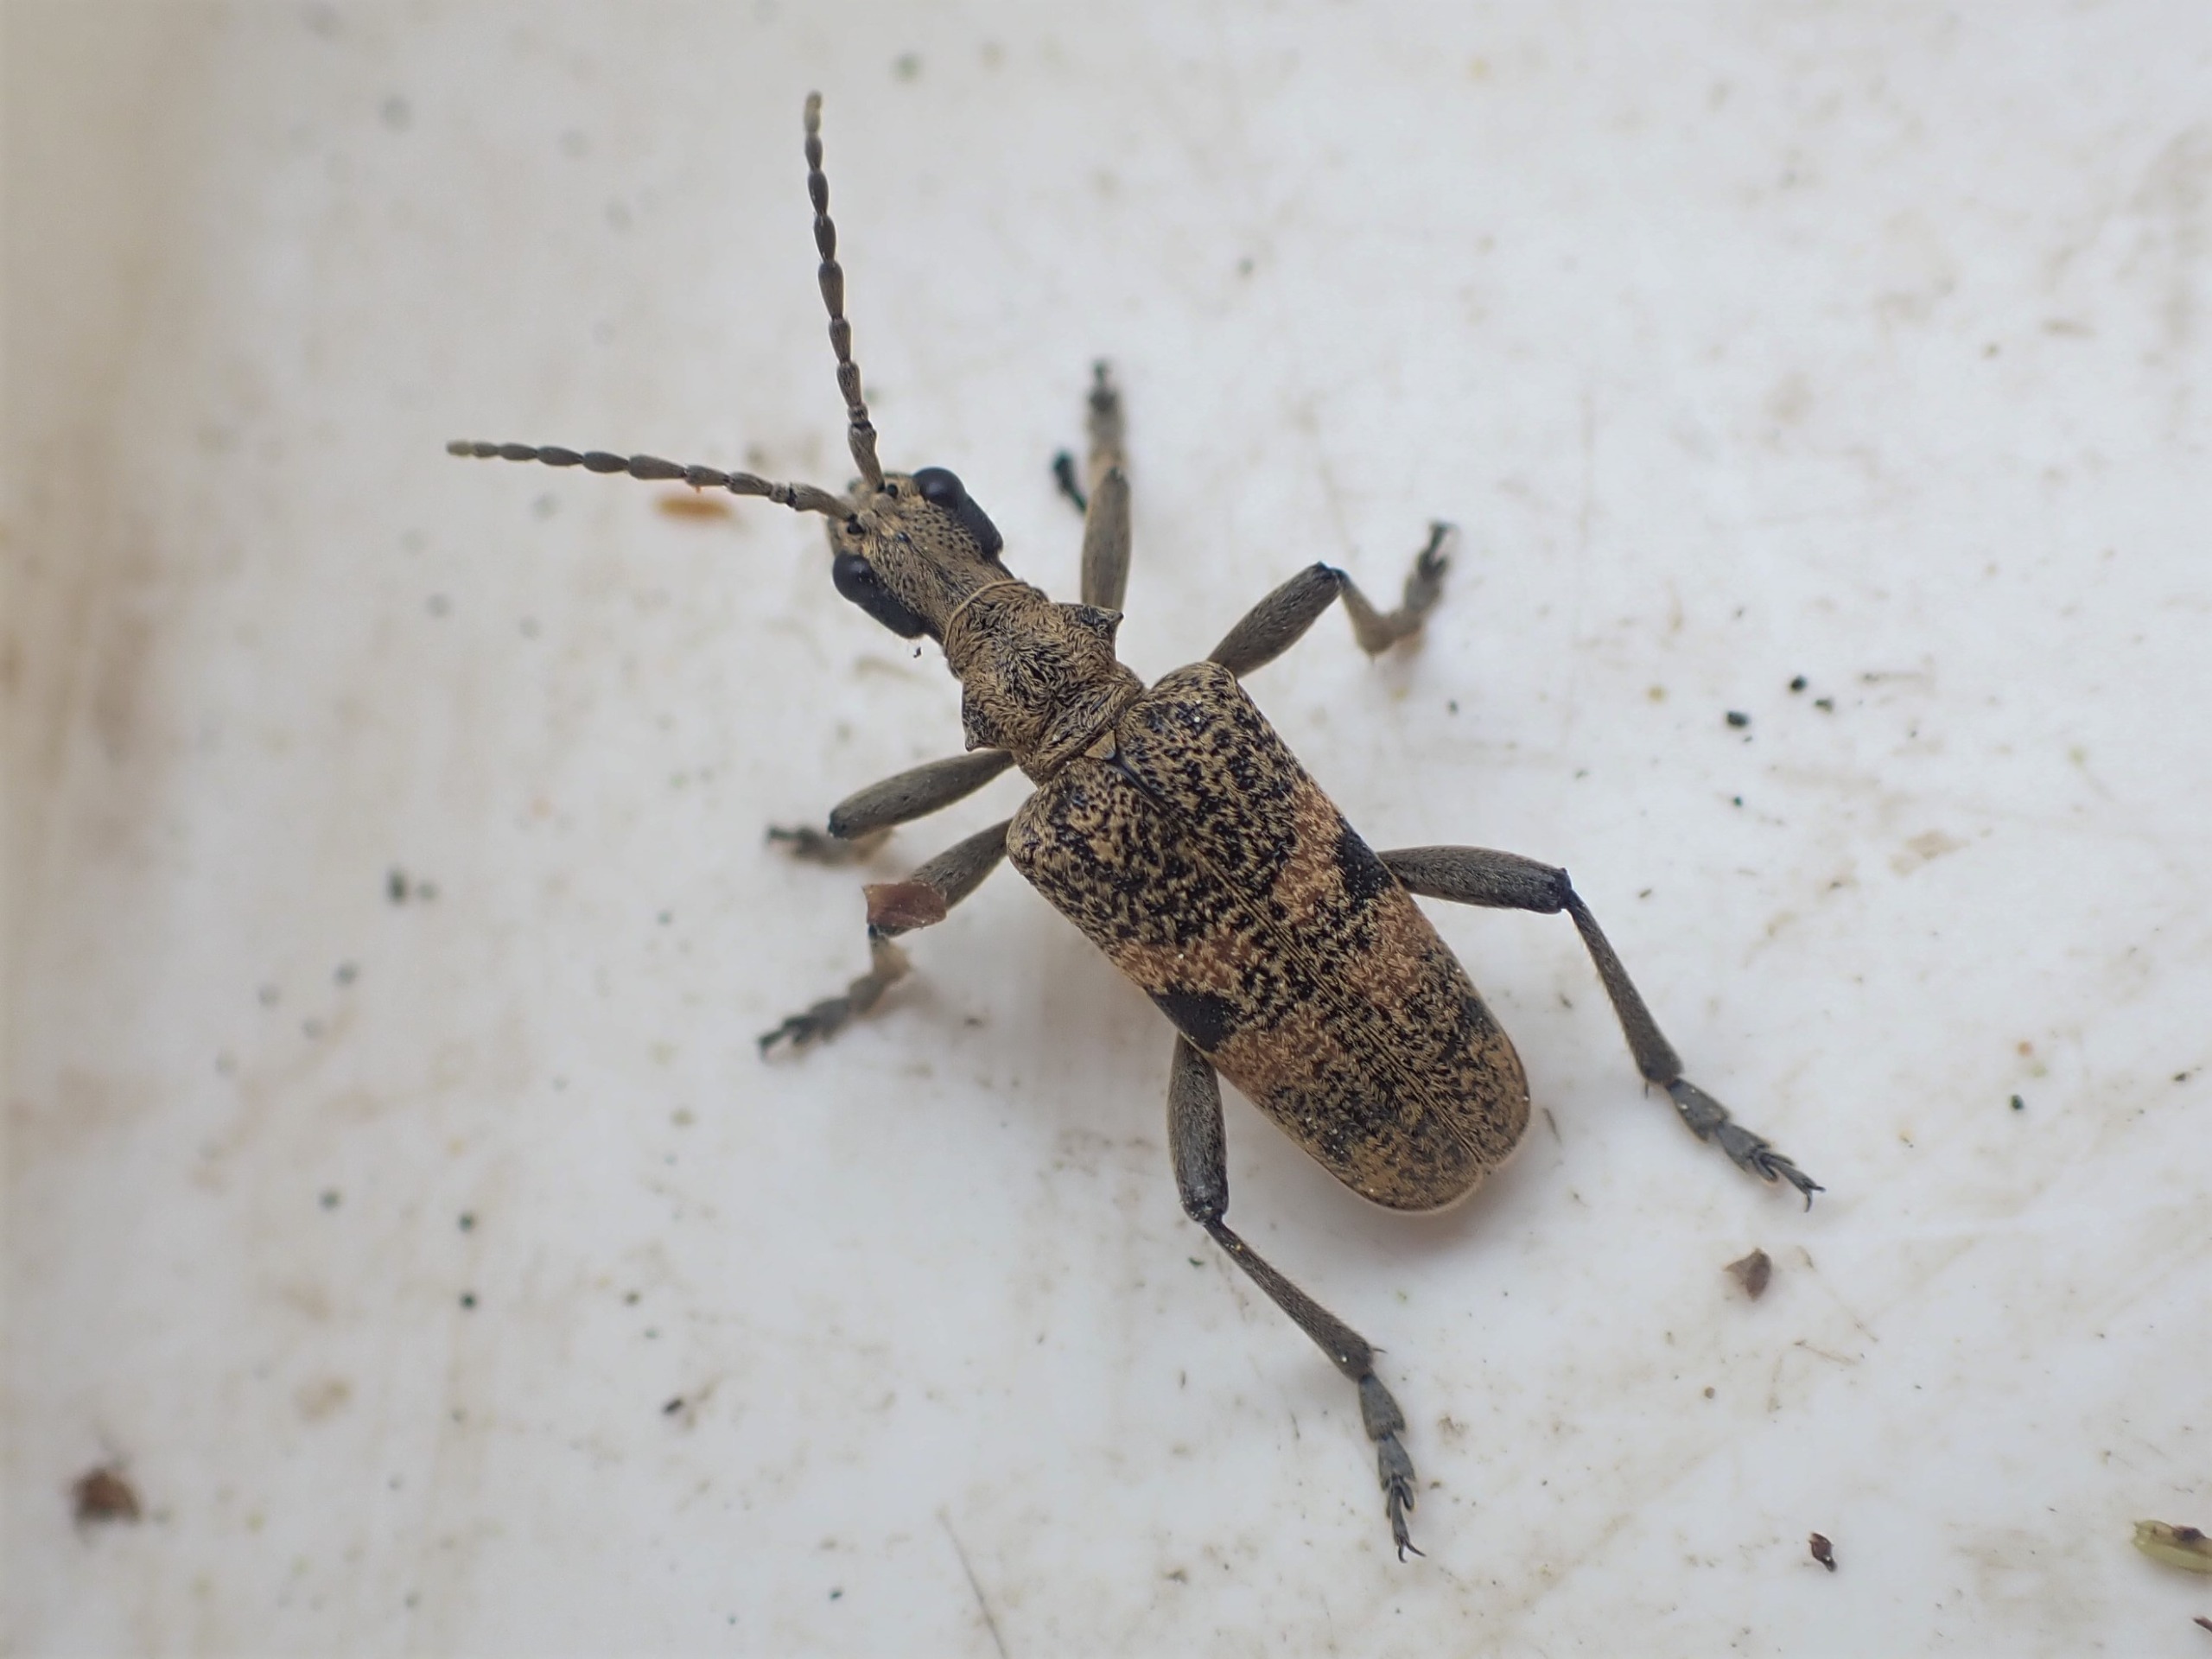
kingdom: Animalia
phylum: Arthropoda
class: Insecta
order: Coleoptera
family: Cerambycidae
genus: Rhagium
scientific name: Rhagium mordax
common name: Blankplettet tandbuk
